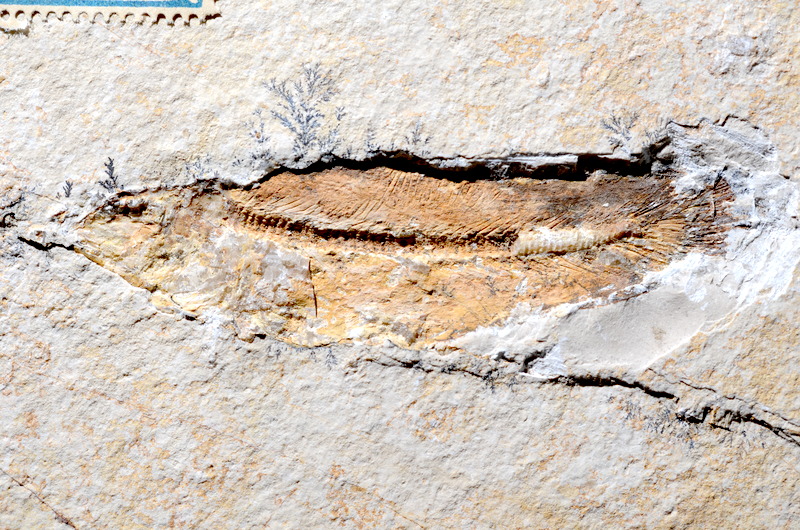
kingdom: Animalia
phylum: Chordata
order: Amiiformes
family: Amiidae
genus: Amiopsis
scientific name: Amiopsis lepidota
